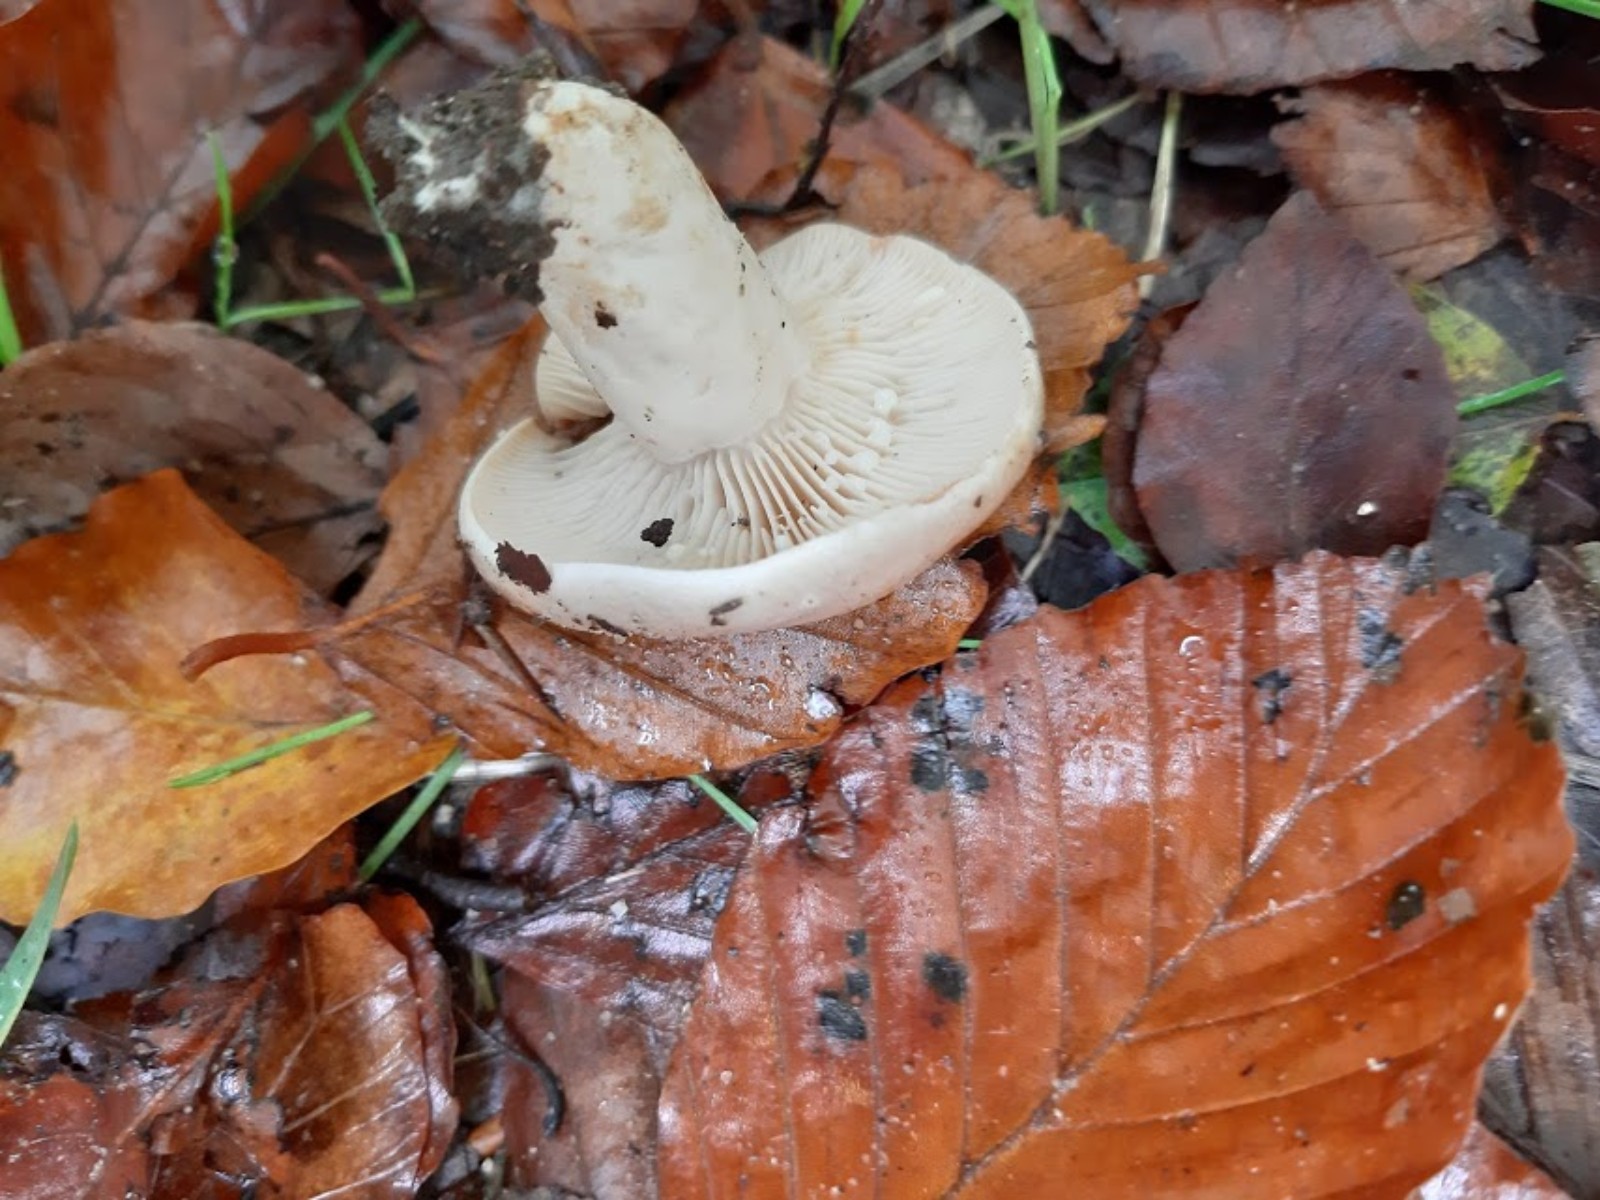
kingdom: Fungi
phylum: Basidiomycota
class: Agaricomycetes
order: Russulales
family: Russulaceae
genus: Lactarius
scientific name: Lactarius pallidus
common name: bleg mælkehat
